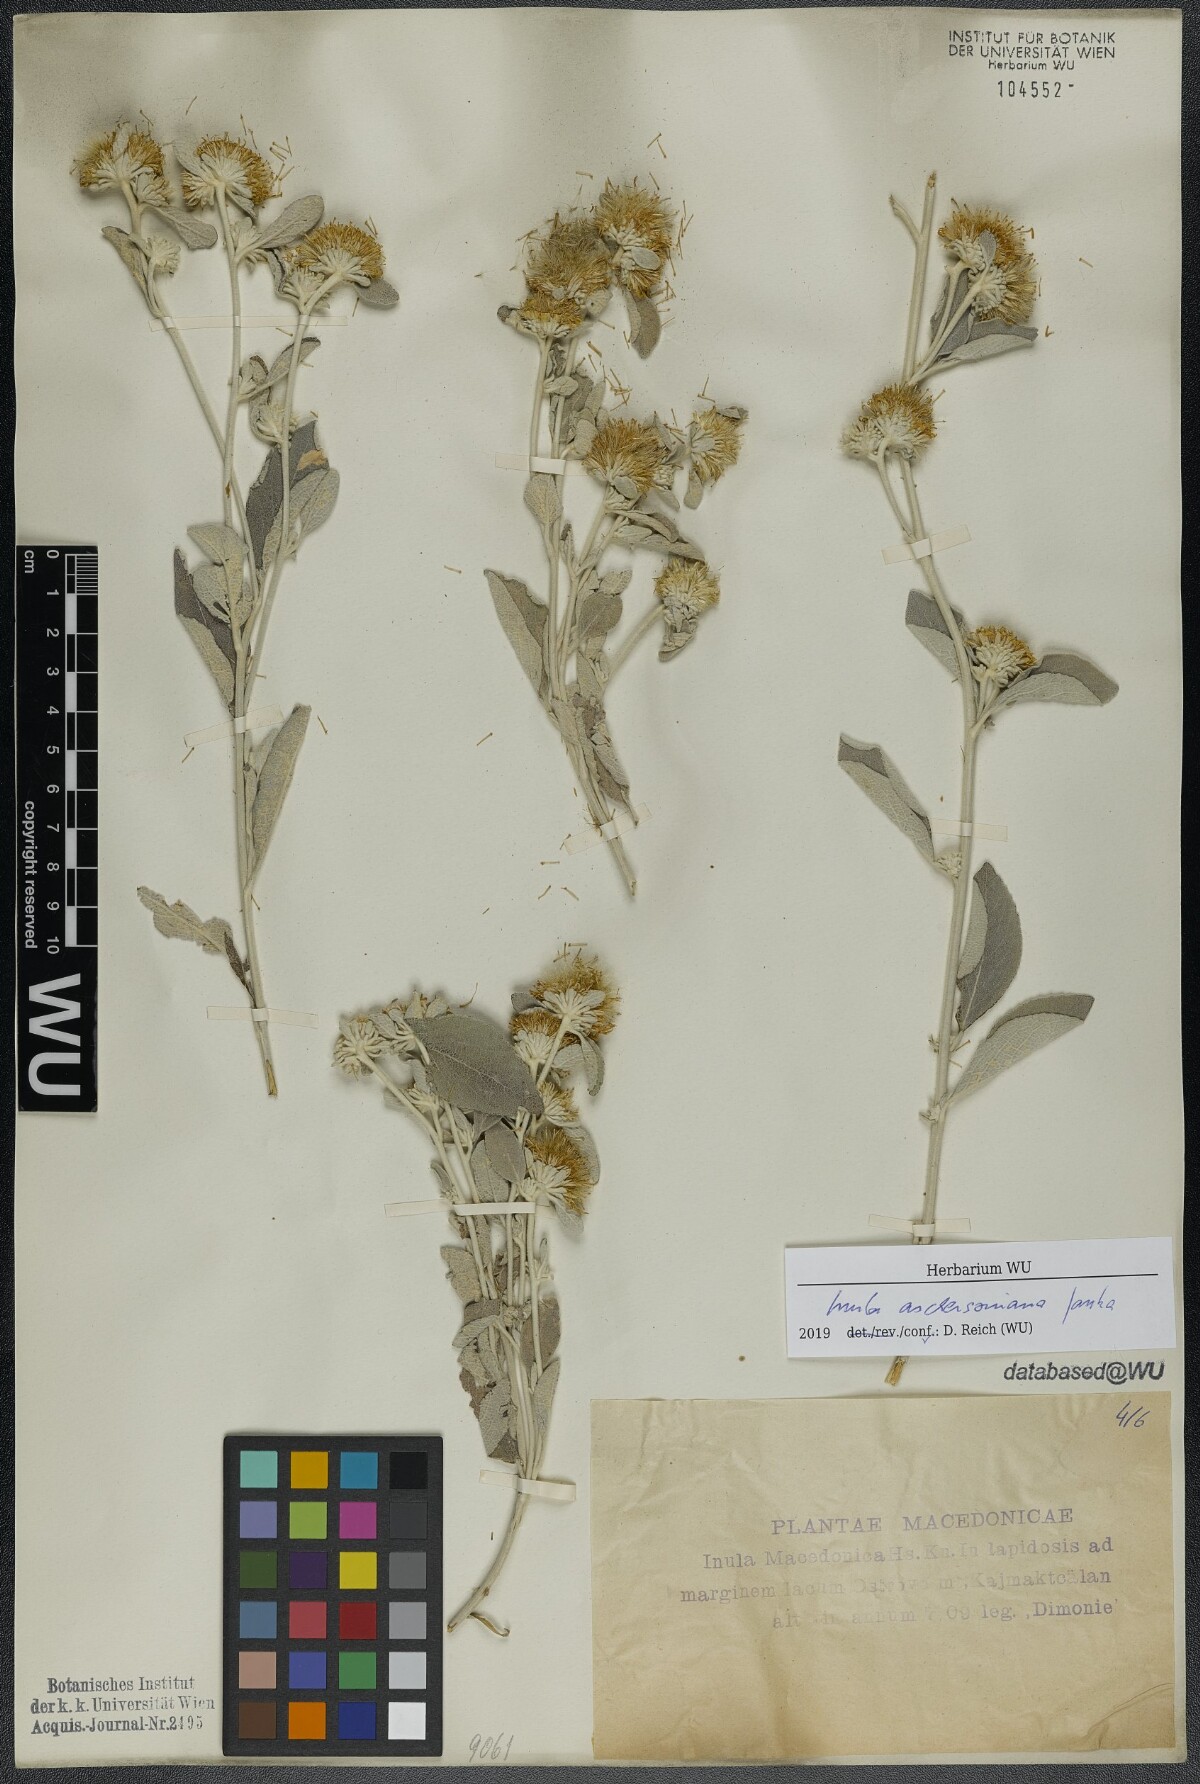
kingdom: Plantae
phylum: Tracheophyta
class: Magnoliopsida
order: Asterales
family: Asteraceae
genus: Pentanema
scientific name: Pentanema aschersonianum
